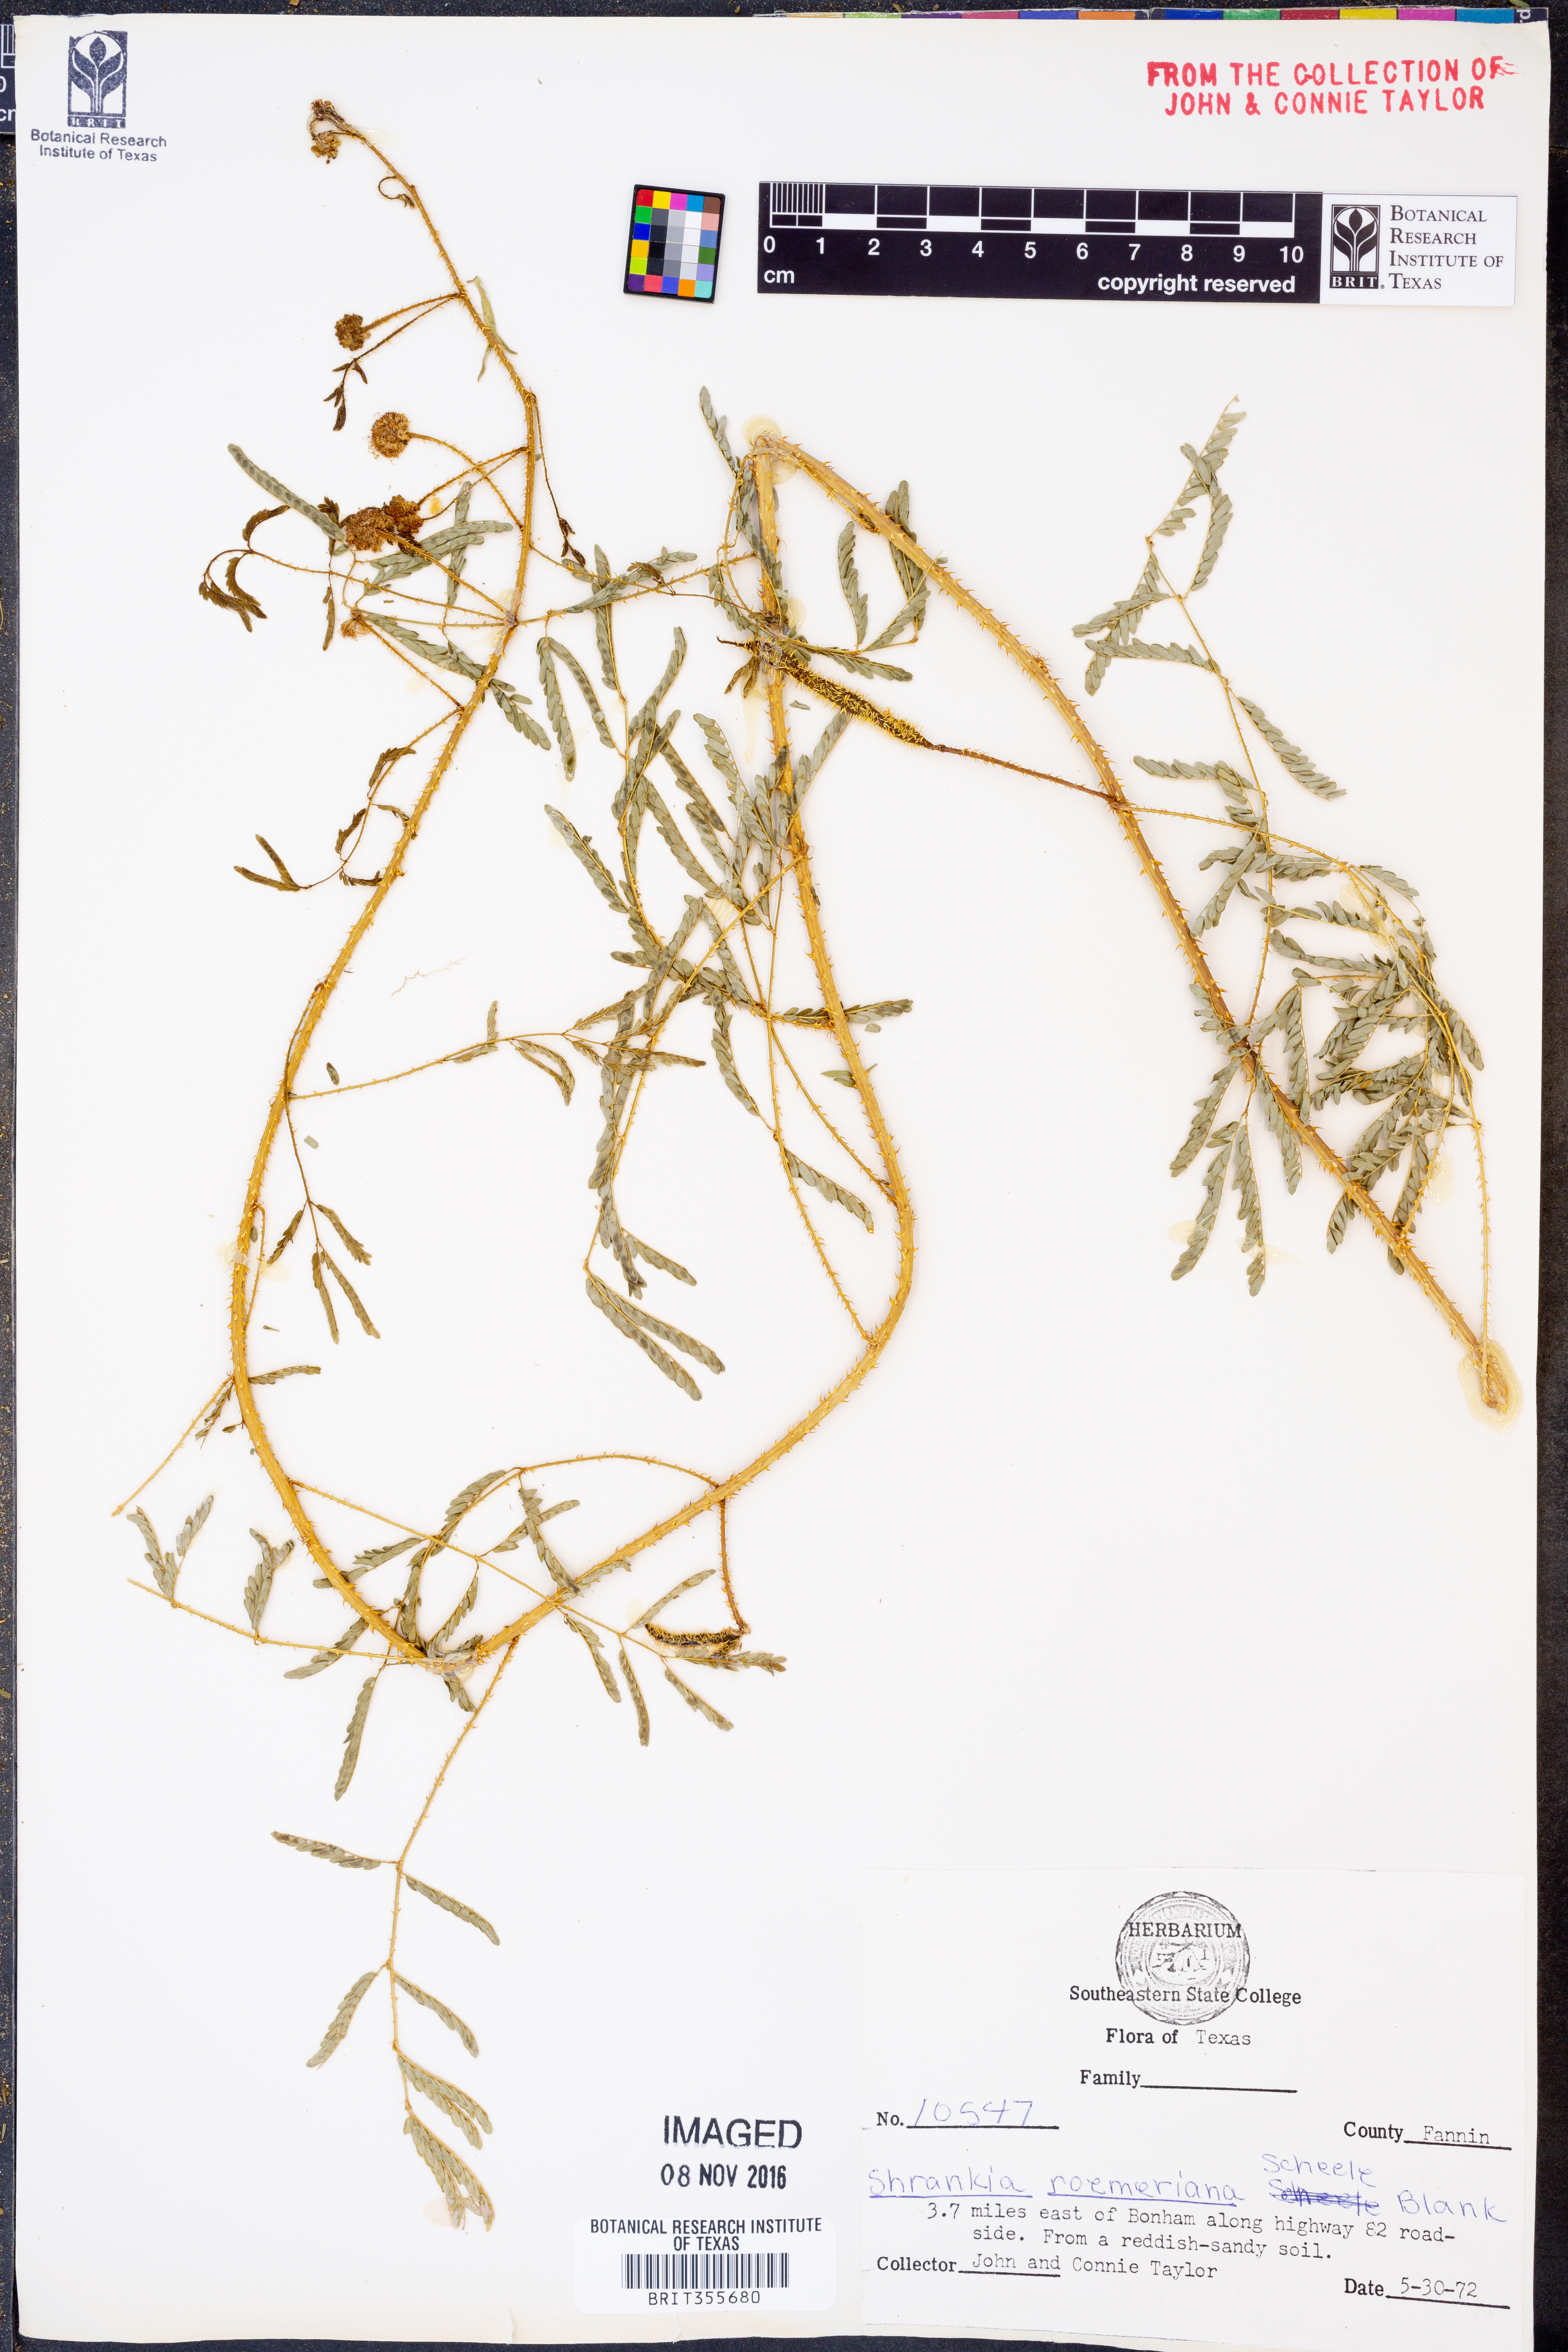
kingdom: Plantae
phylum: Tracheophyta
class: Magnoliopsida
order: Fabales
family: Fabaceae
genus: Mimosa
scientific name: Mimosa quadrivalvis
